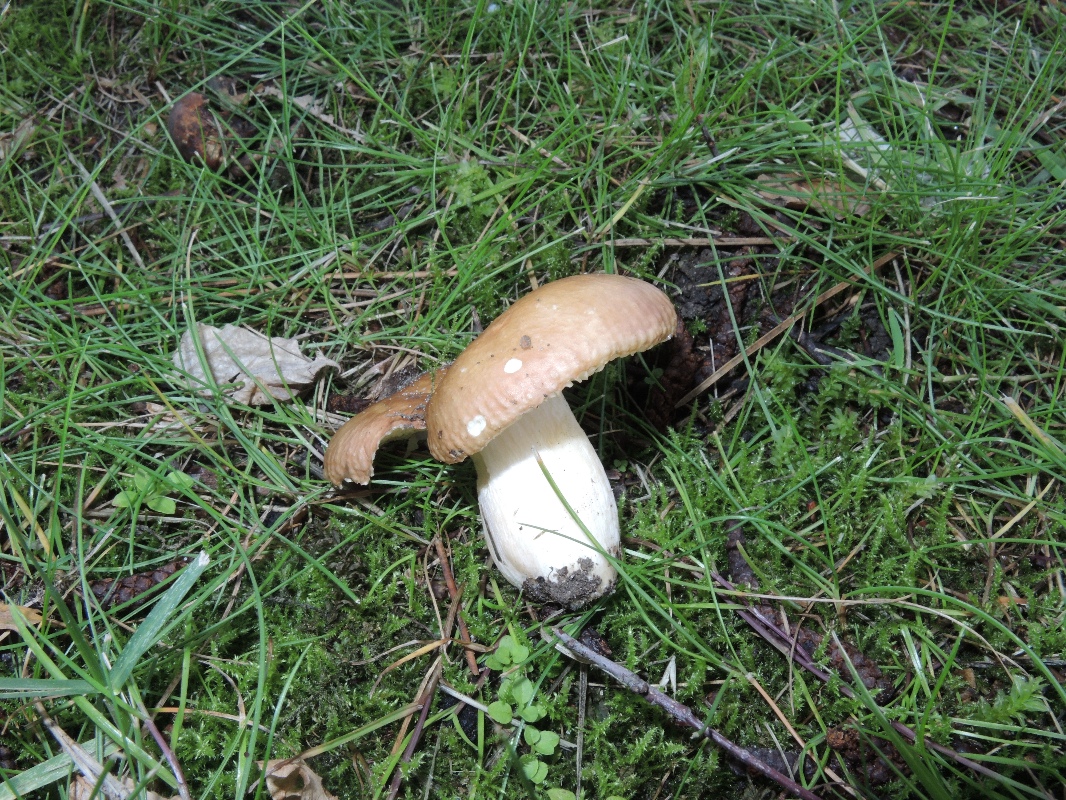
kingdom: Fungi
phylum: Basidiomycota
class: Agaricomycetes
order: Russulales
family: Russulaceae
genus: Russula
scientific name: Russula graveolens
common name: bugtet skørhat
